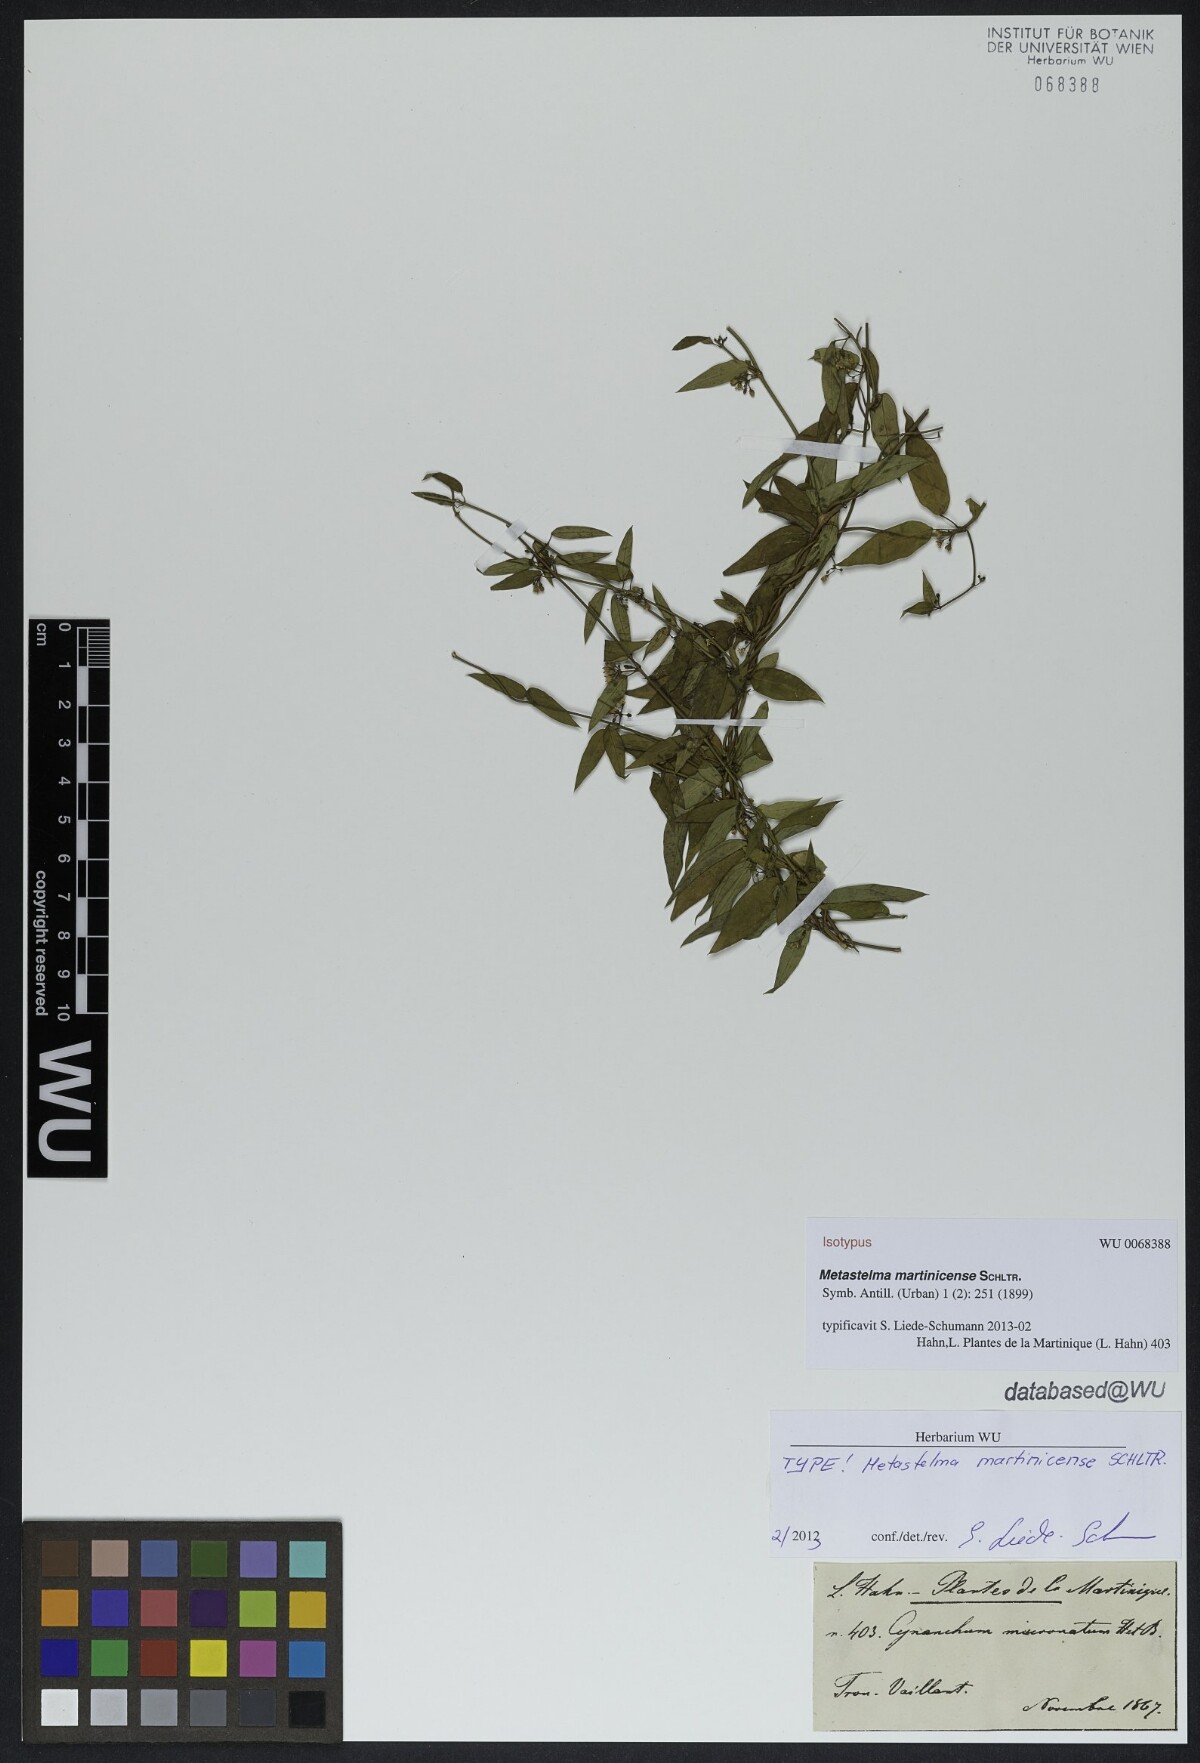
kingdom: Plantae
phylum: Tracheophyta
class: Magnoliopsida
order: Gentianales
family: Apocynaceae
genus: Metastelma
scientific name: Metastelma martinicense
